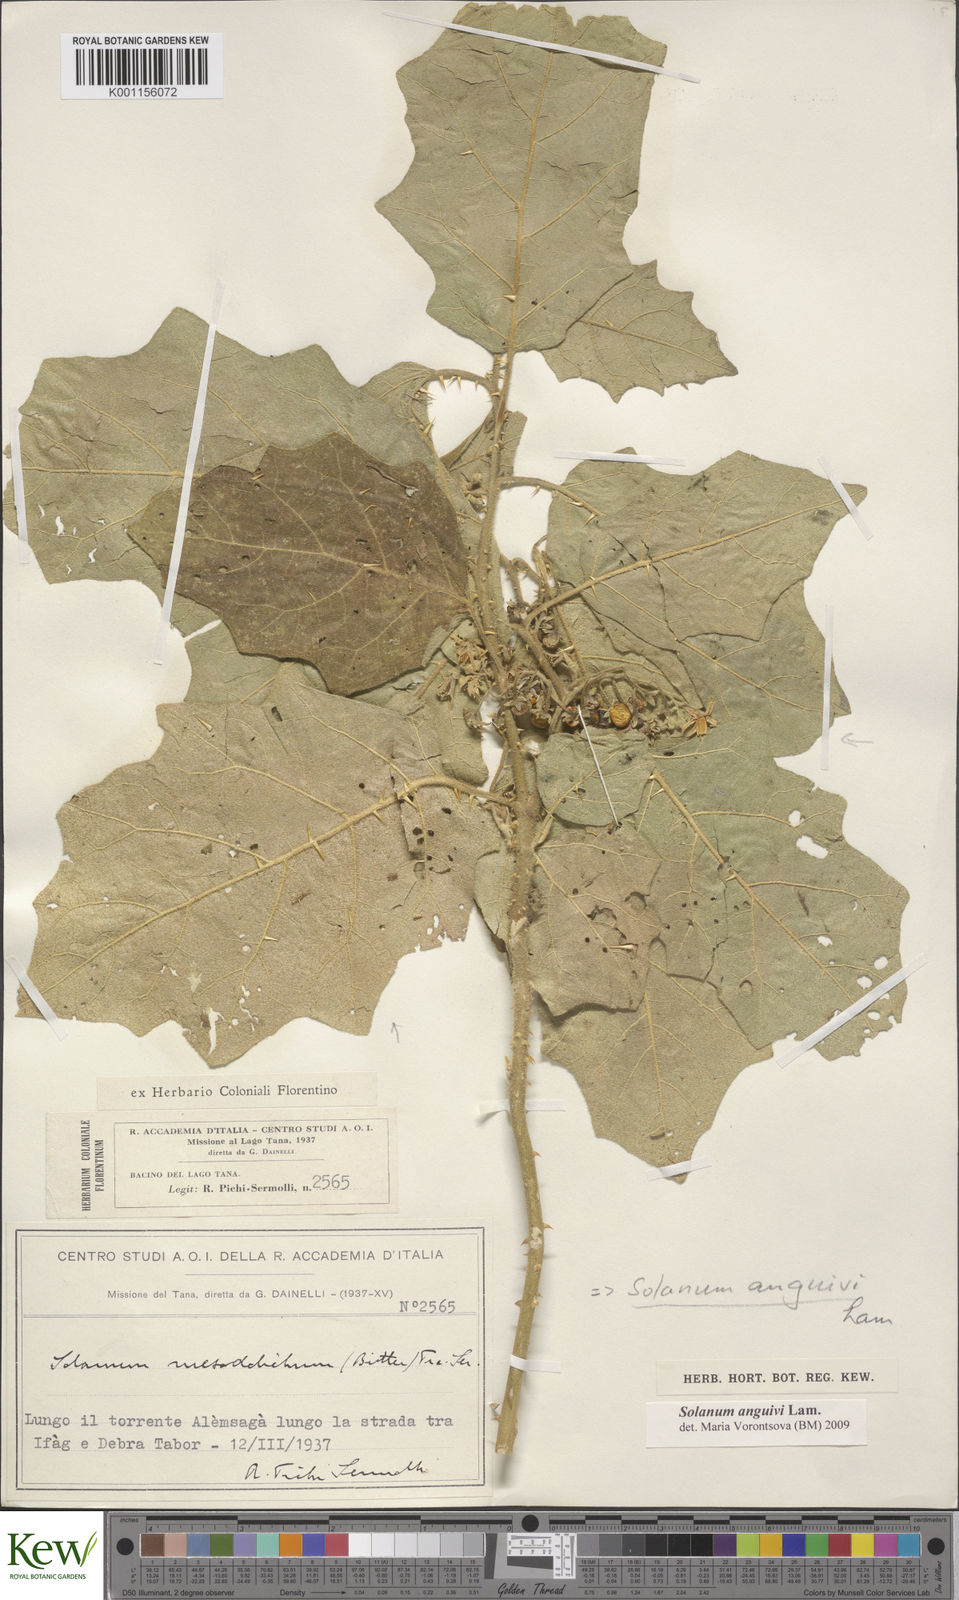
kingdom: Plantae
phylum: Tracheophyta
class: Magnoliopsida
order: Solanales
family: Solanaceae
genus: Solanum
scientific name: Solanum anguivi
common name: Forest bitterberry
